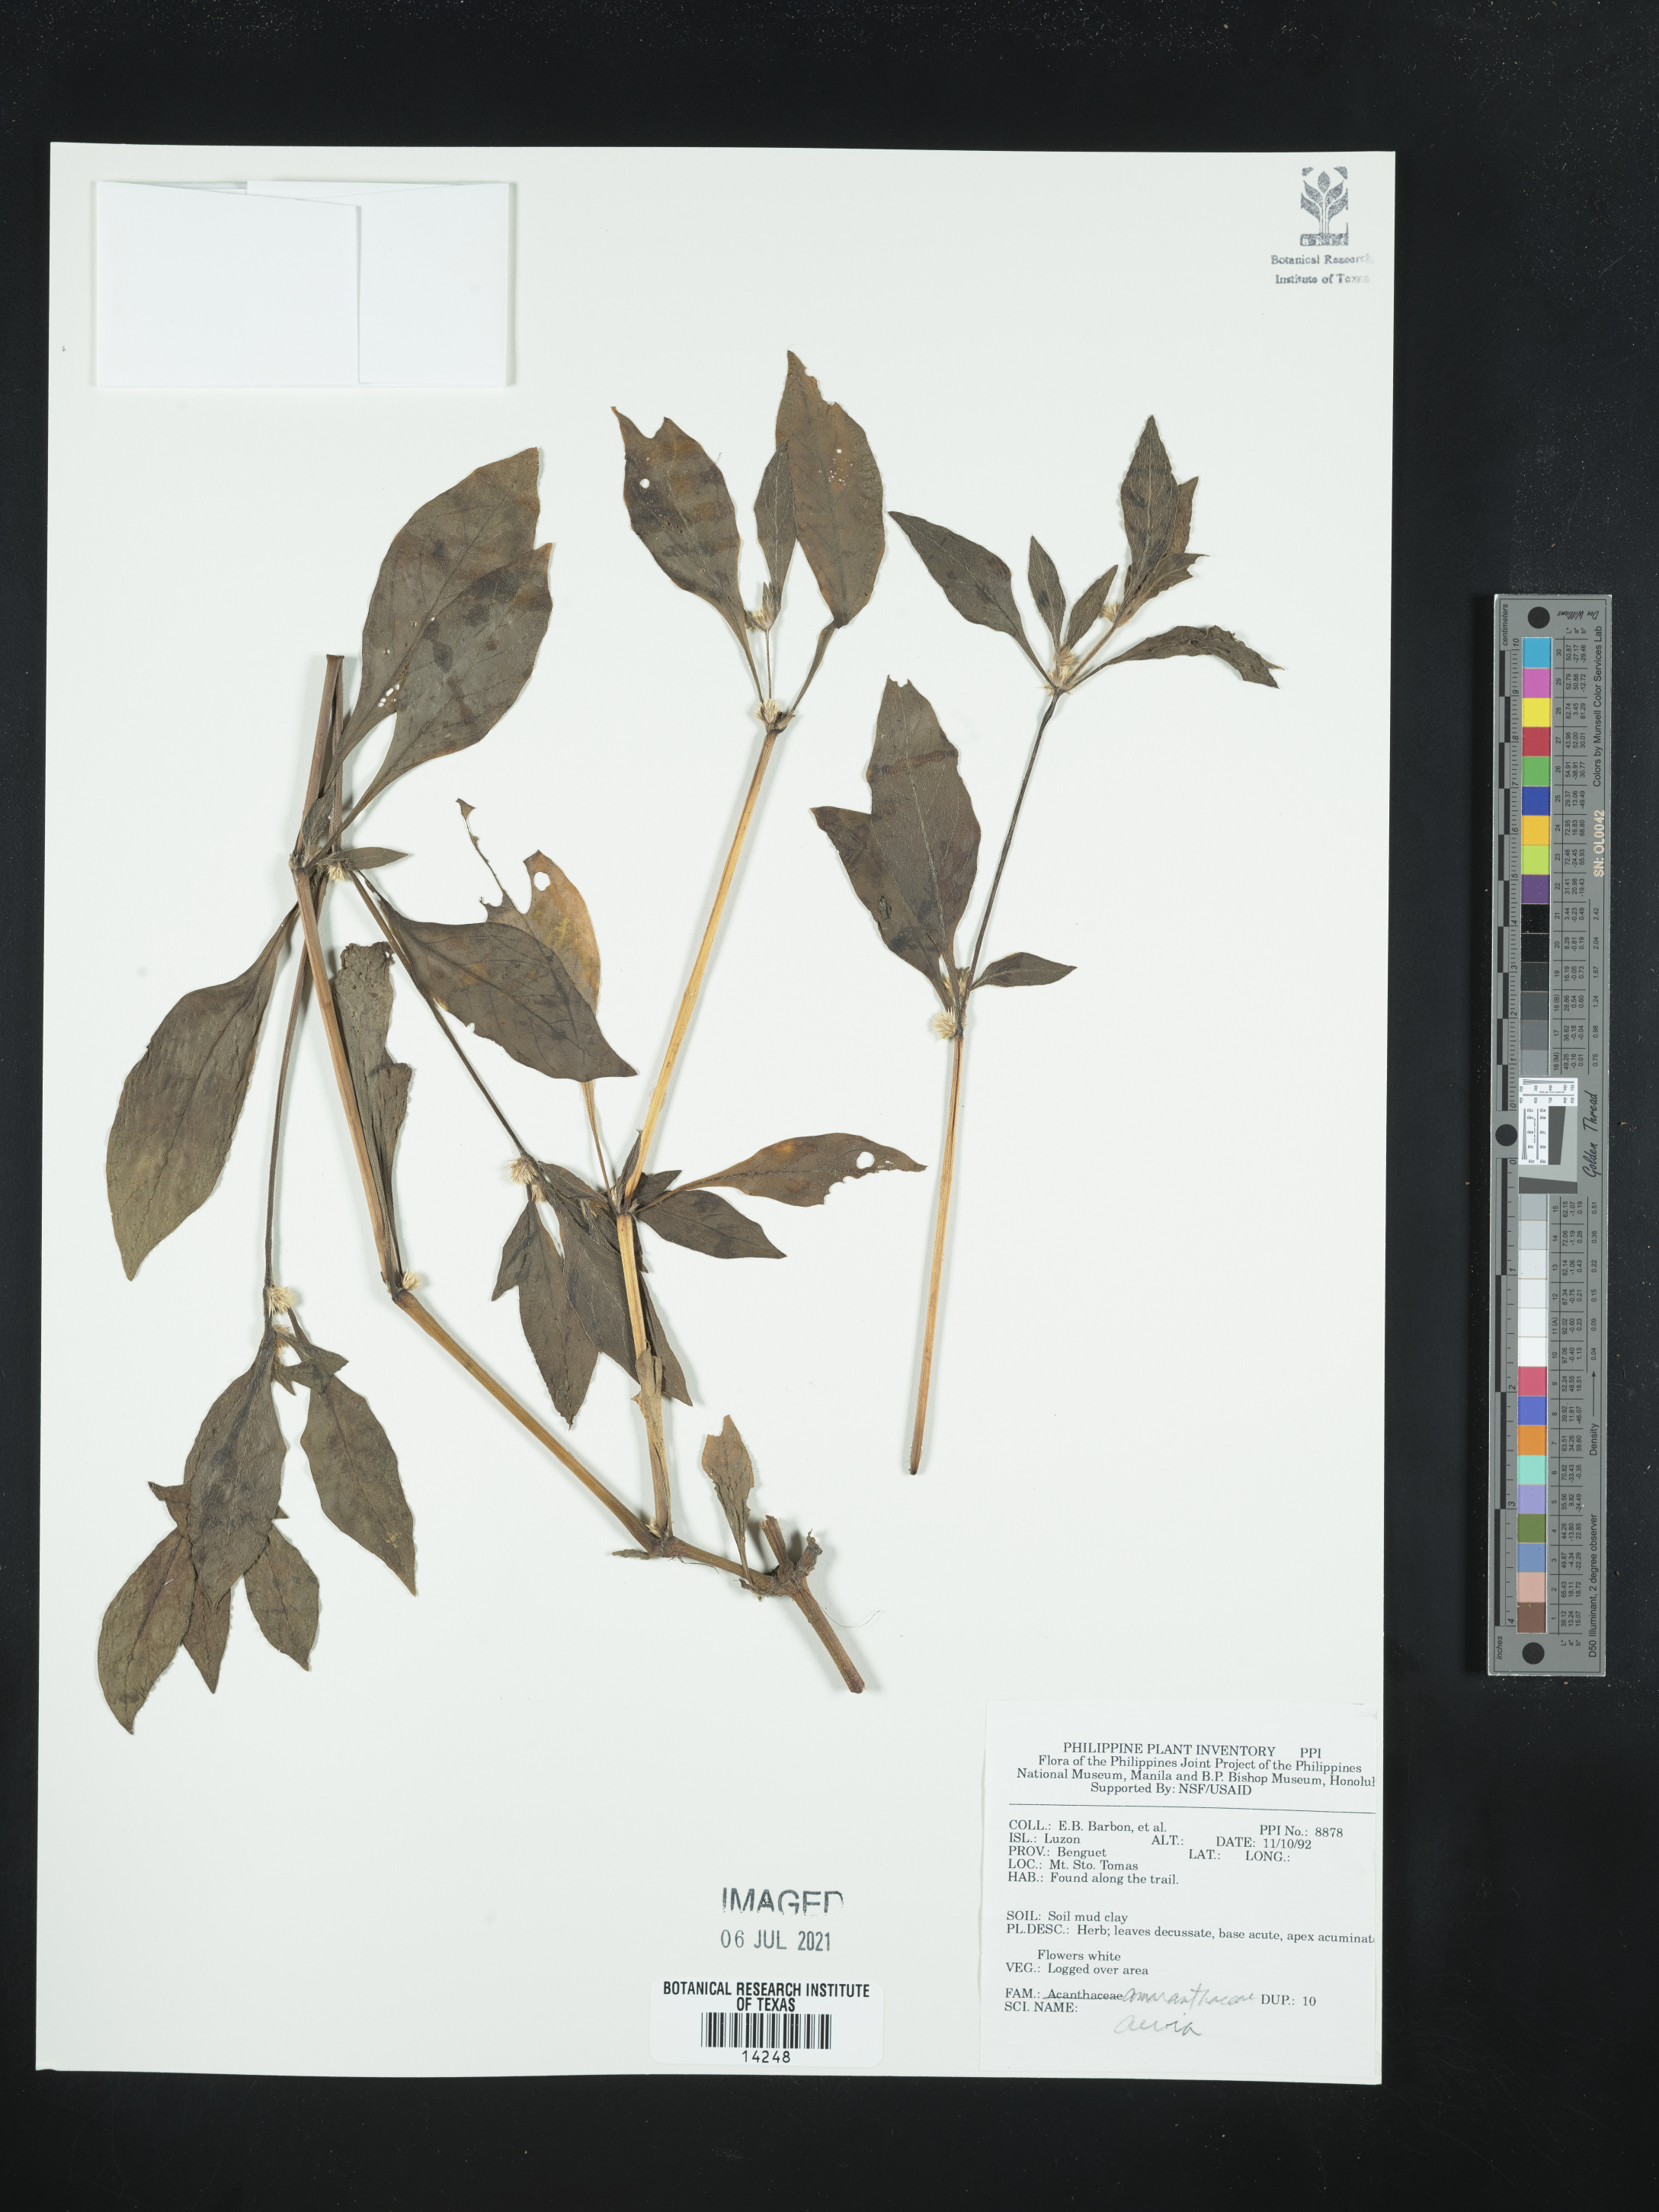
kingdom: Plantae
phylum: Tracheophyta
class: Magnoliopsida
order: Caryophyllales
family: Amaranthaceae
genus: Achyranthes
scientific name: Achyranthes aspera
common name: Devil's horsewhip
